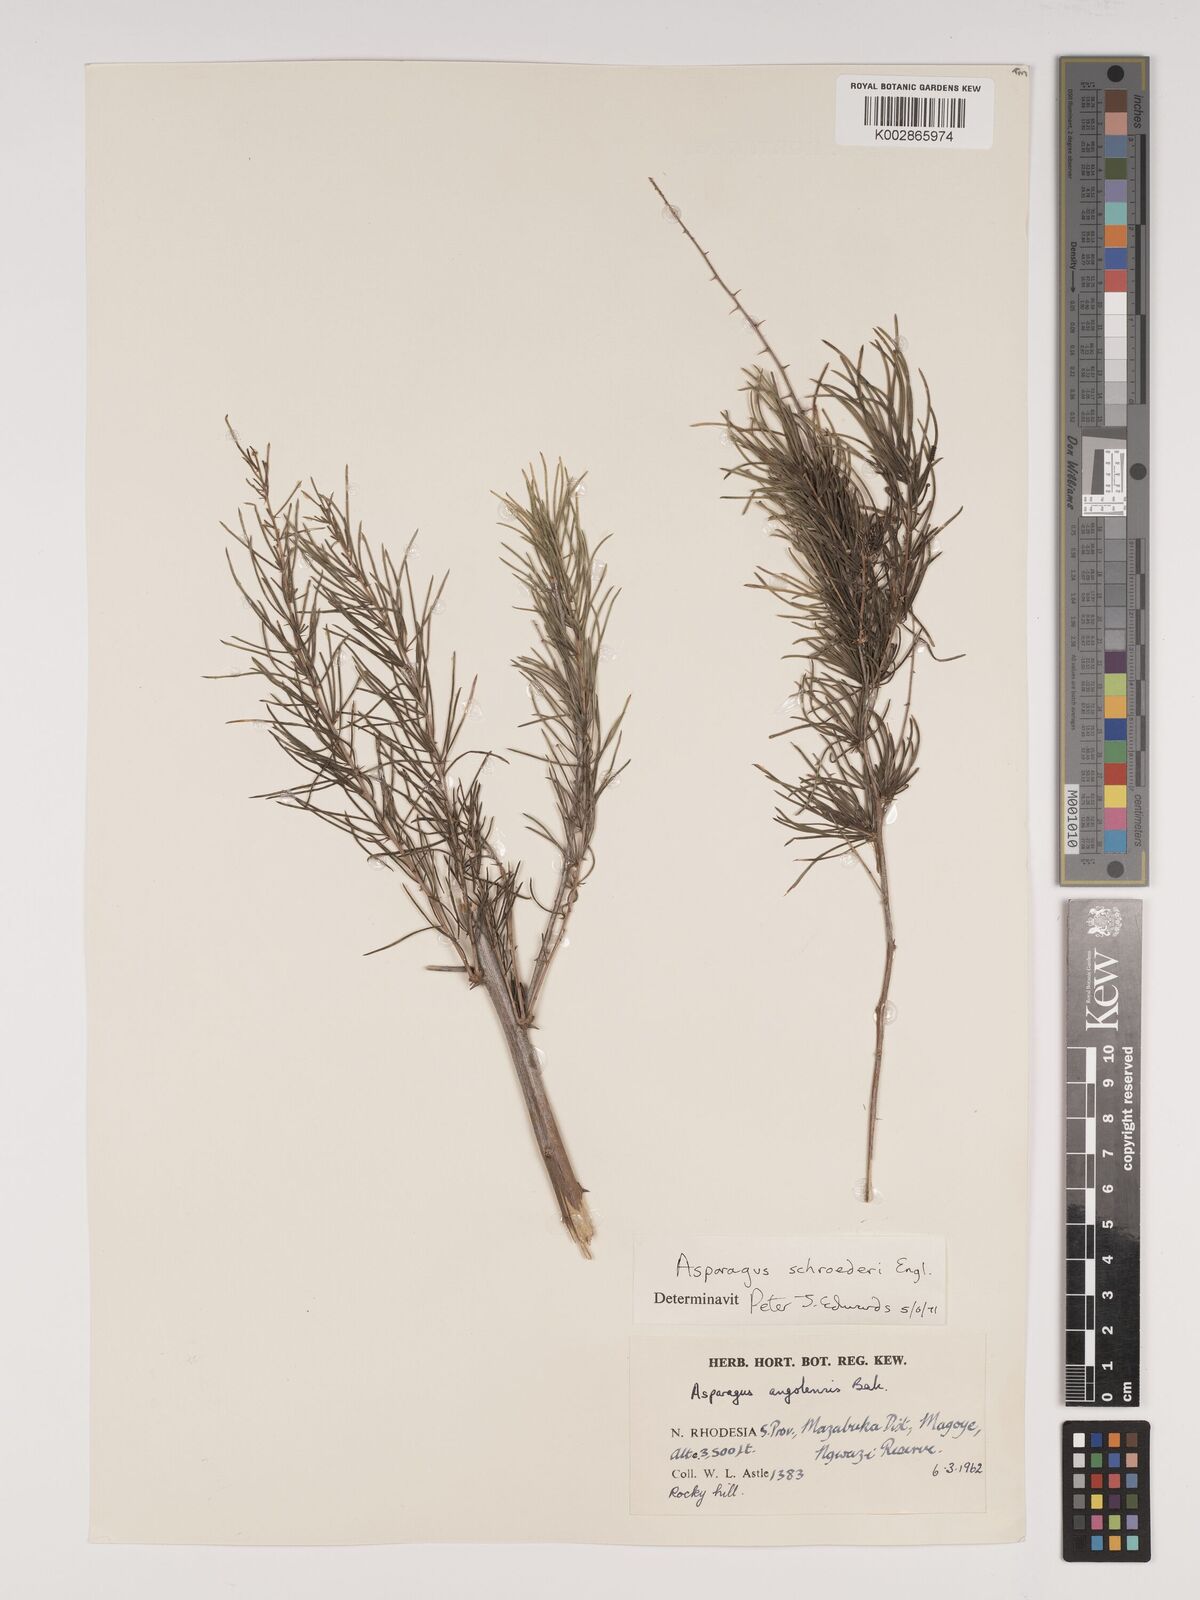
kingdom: Plantae
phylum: Tracheophyta
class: Liliopsida
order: Asparagales
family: Asparagaceae
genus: Asparagus
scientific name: Asparagus schroederi
